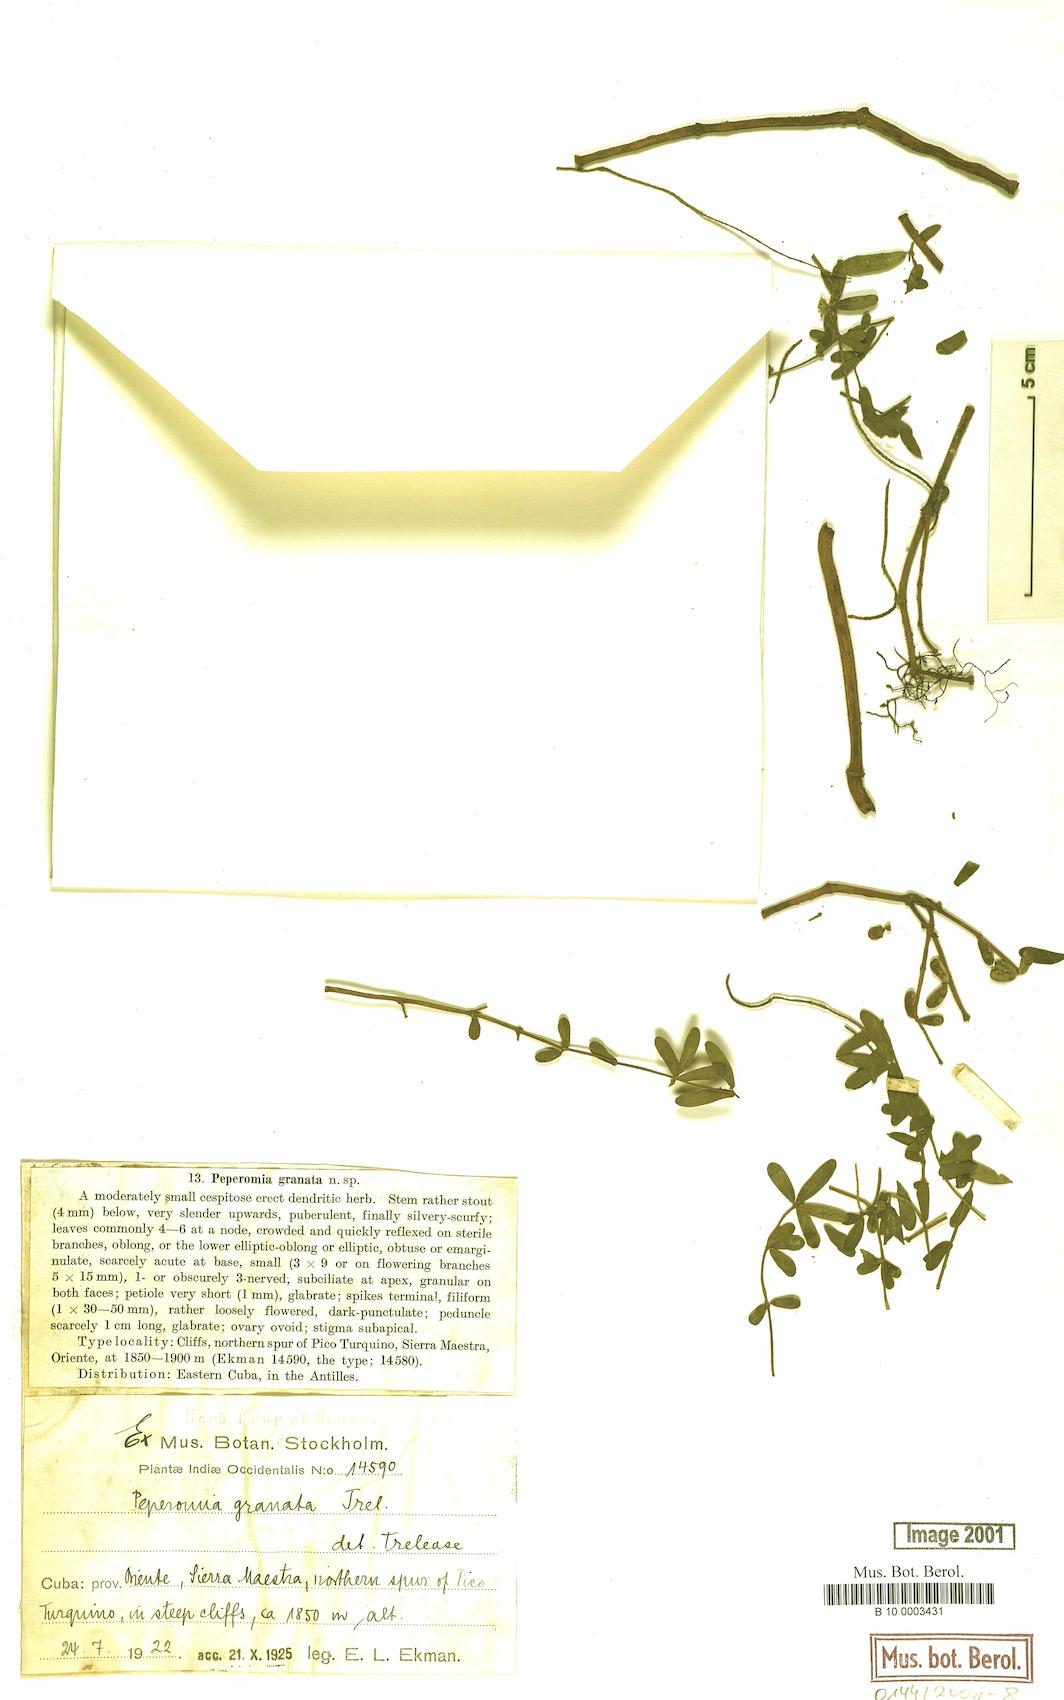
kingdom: Plantae
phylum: Tracheophyta
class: Magnoliopsida
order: Piperales
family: Piperaceae
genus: Peperomia
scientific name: Peperomia galioides
